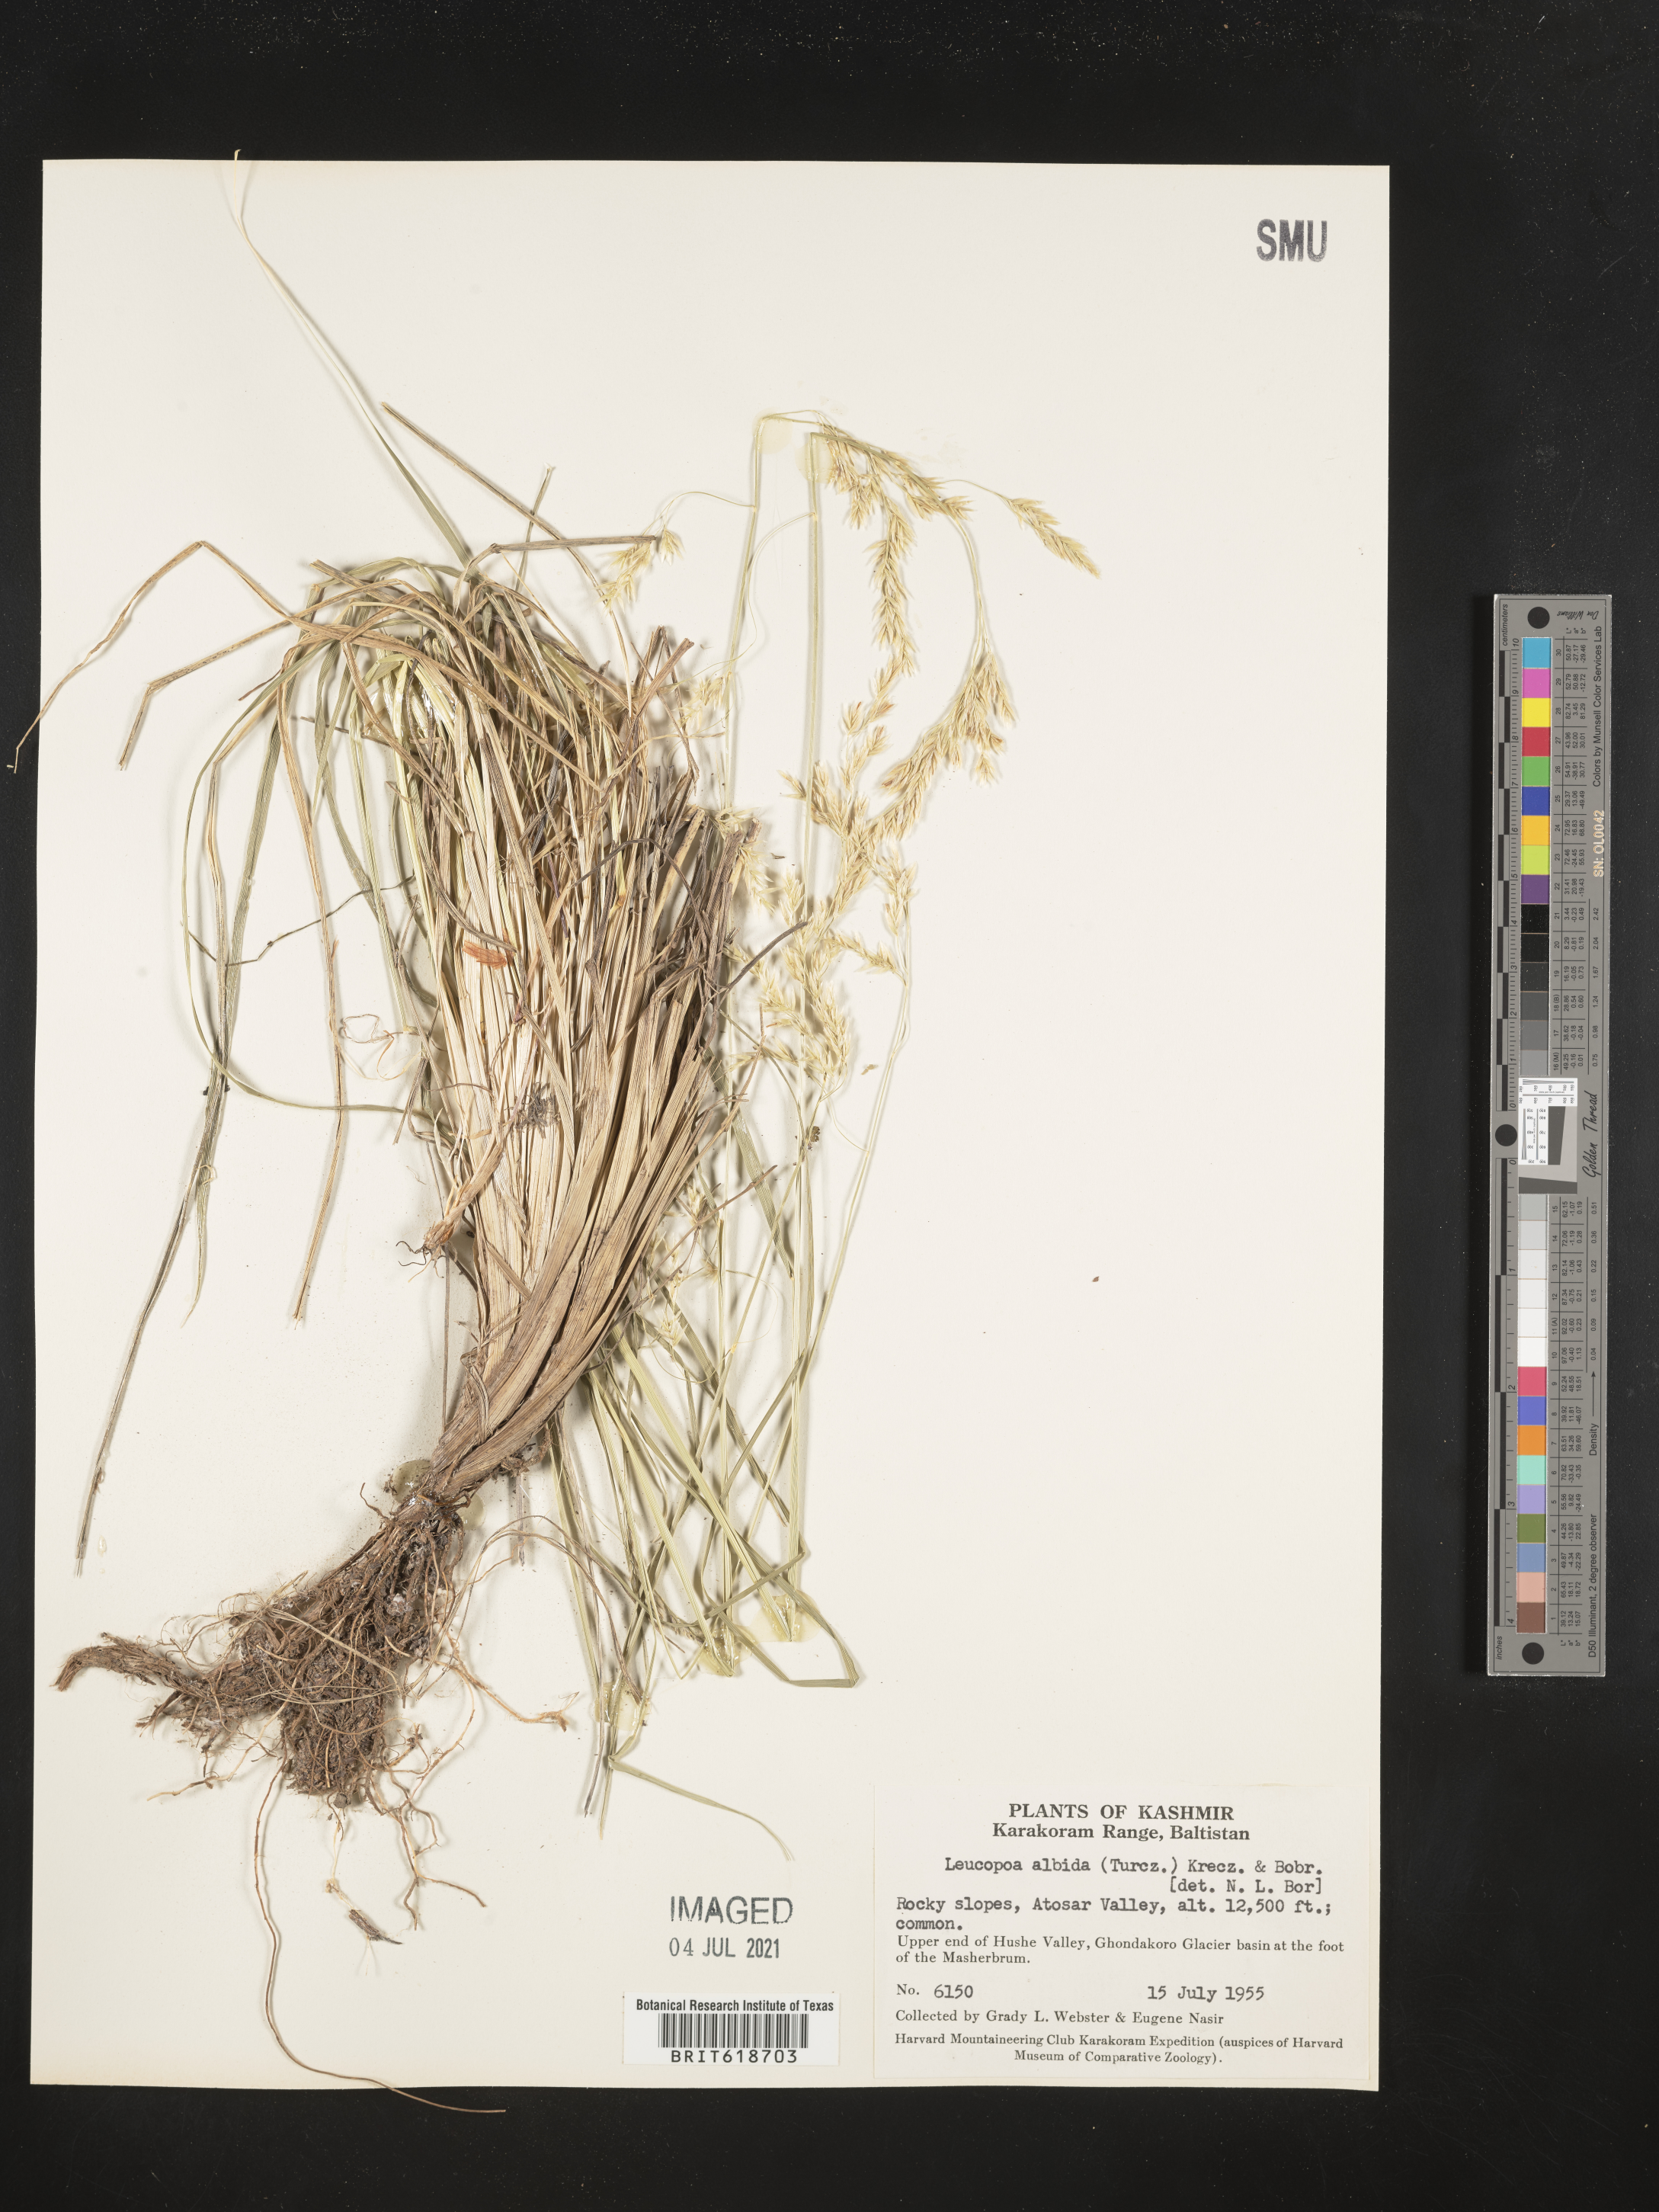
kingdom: Plantae
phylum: Tracheophyta
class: Liliopsida
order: Poales
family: Poaceae
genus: Festuca
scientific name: Festuca sibirica
